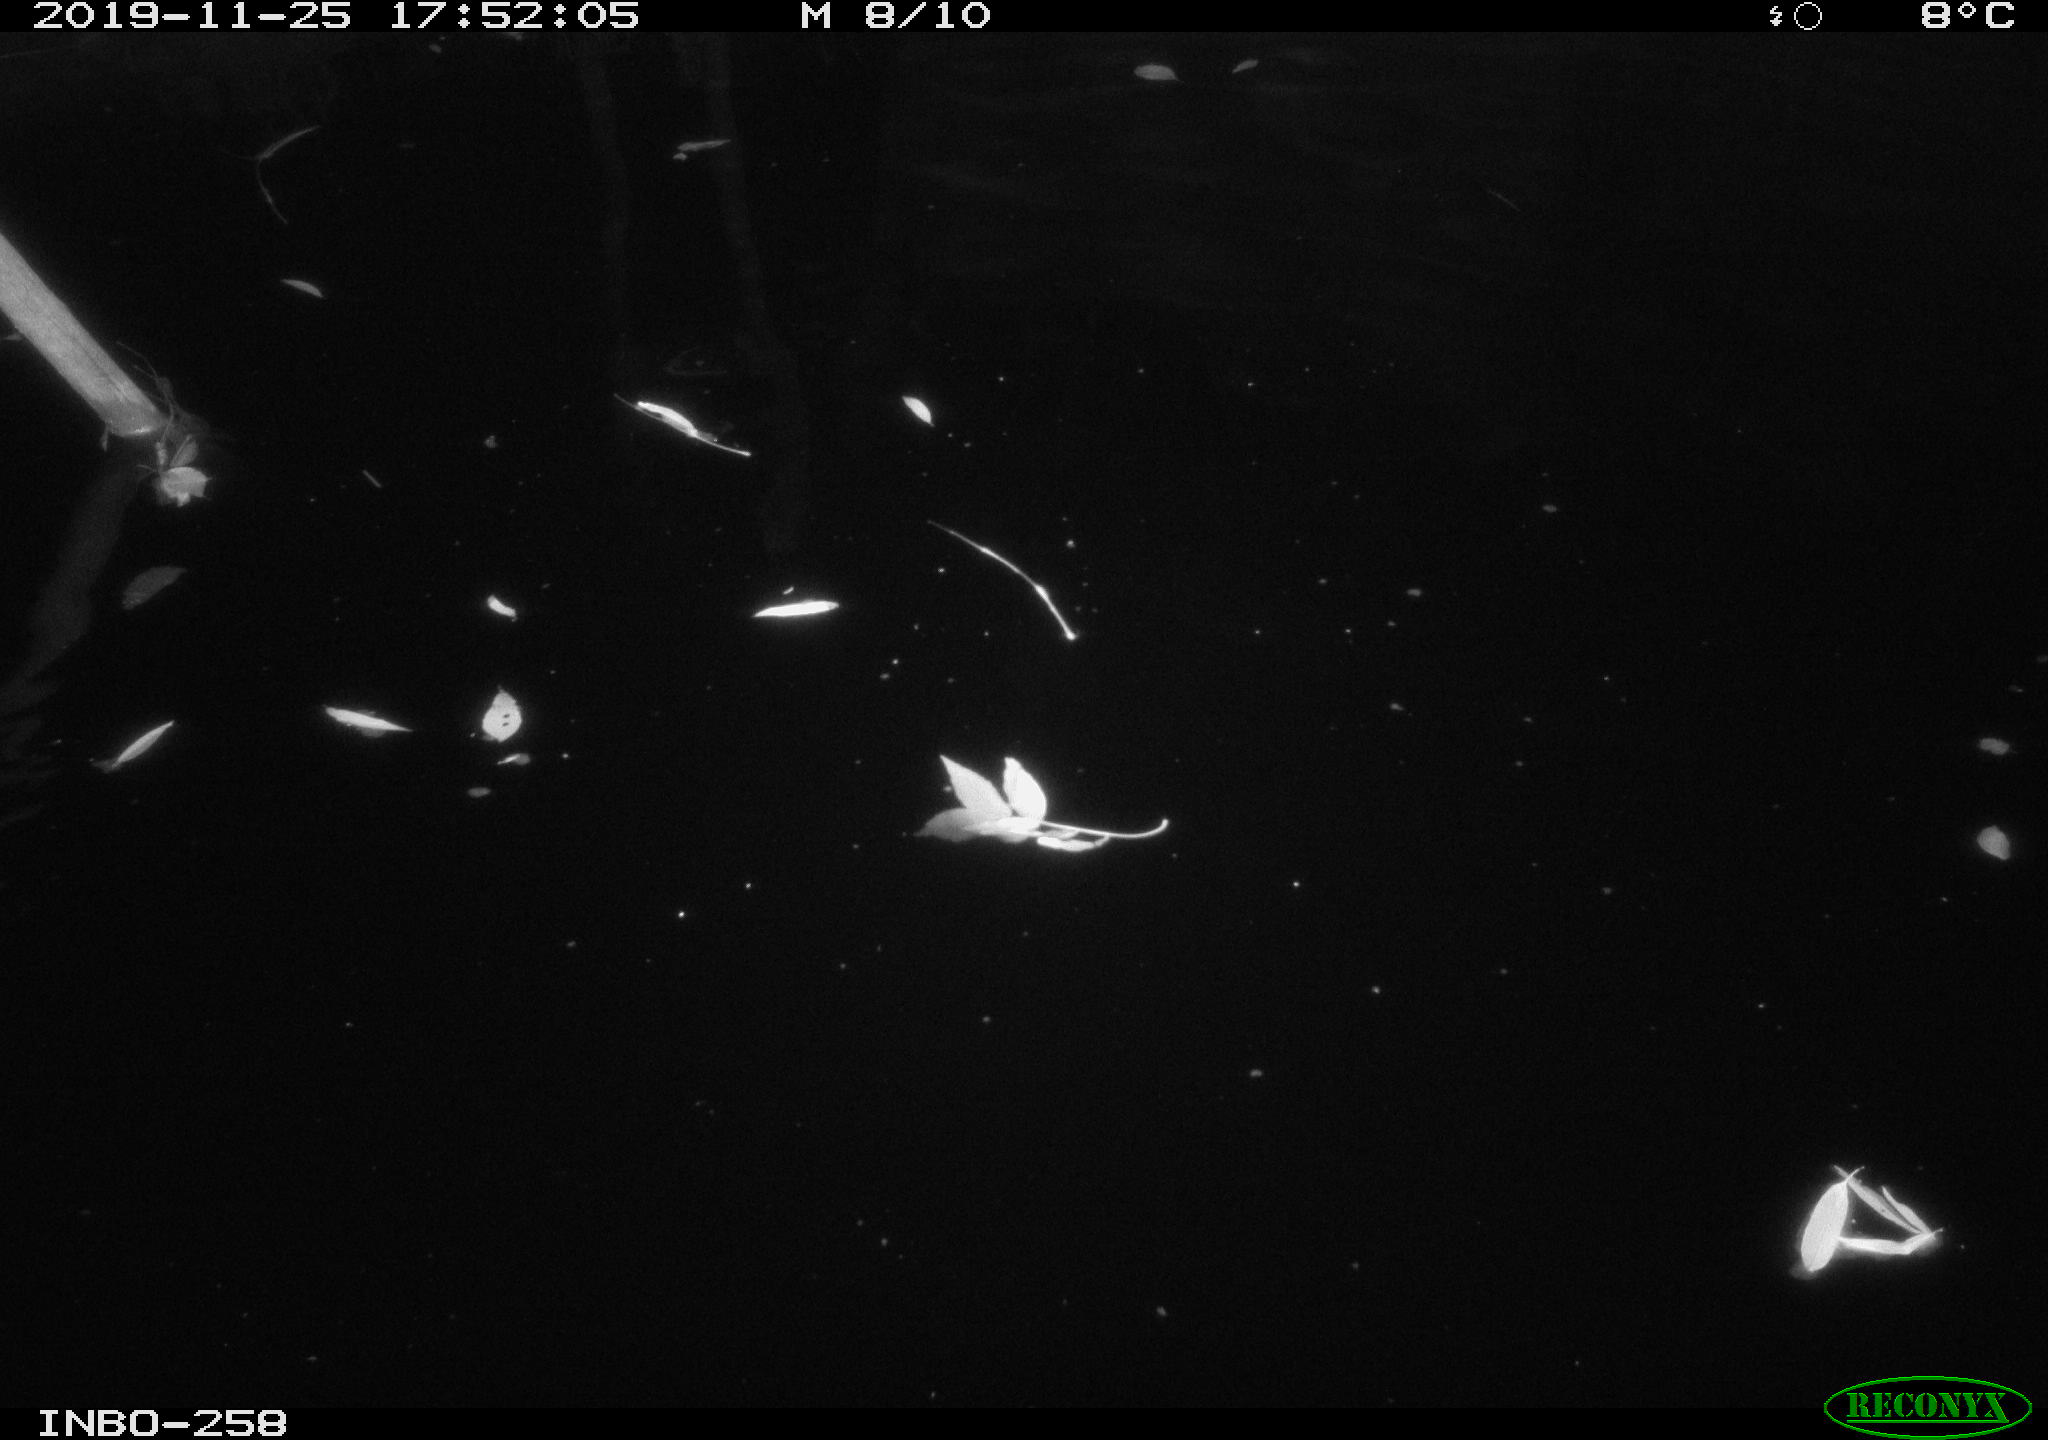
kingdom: Animalia
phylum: Chordata
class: Aves
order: Anseriformes
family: Anatidae
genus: Anas
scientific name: Anas platyrhynchos
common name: Mallard
